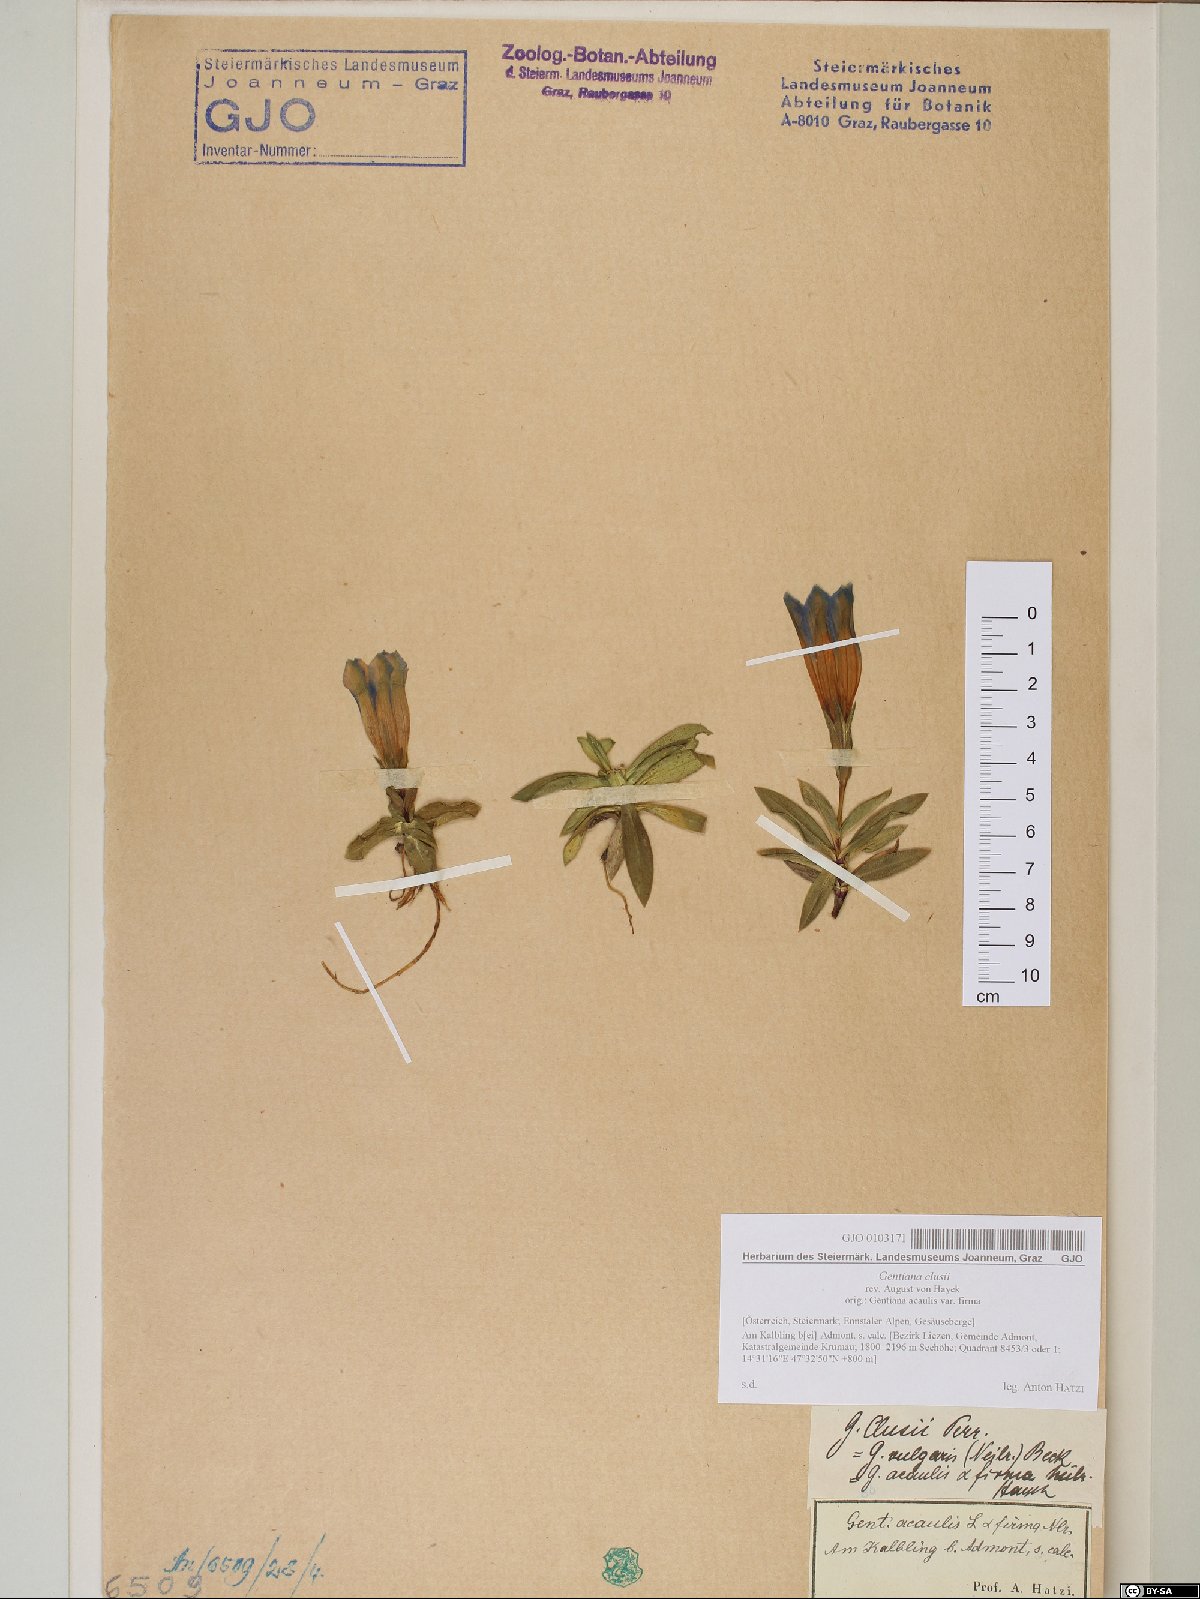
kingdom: Plantae
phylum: Tracheophyta
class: Magnoliopsida
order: Gentianales
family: Gentianaceae
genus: Gentiana
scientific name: Gentiana clusii
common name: Trumpet gentian
